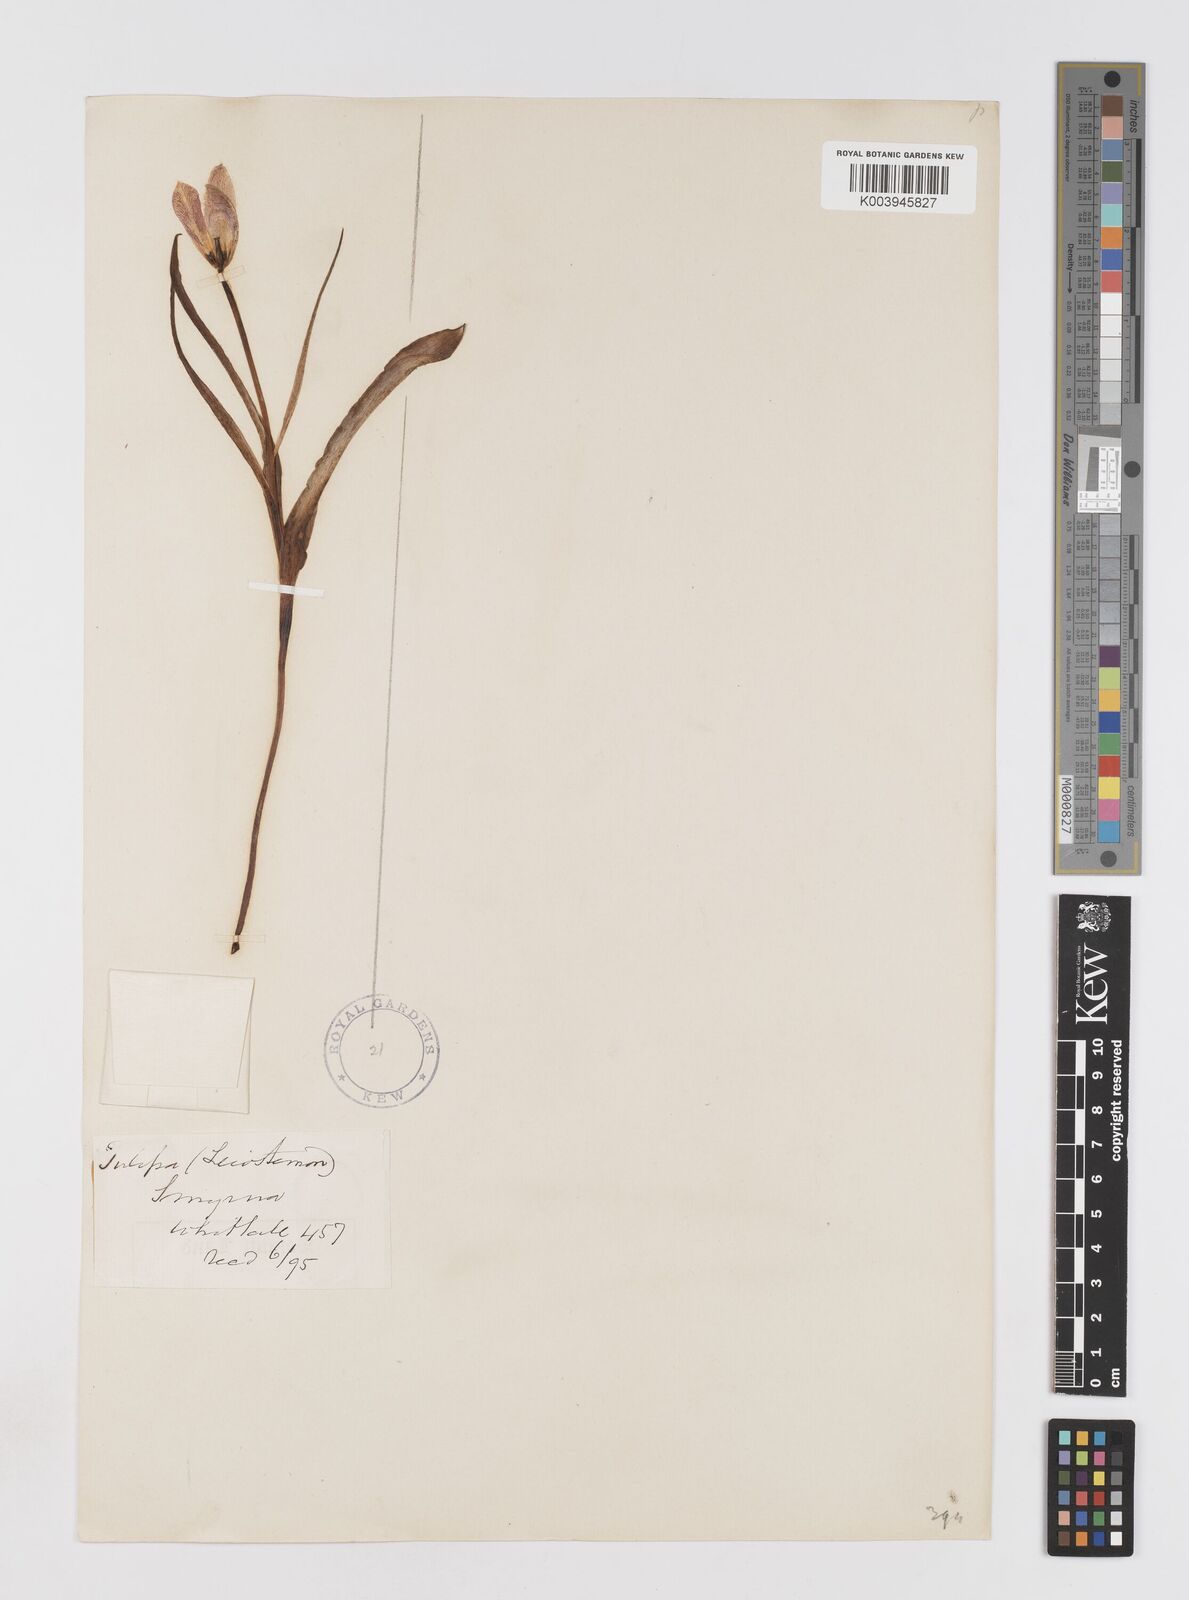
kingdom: Plantae
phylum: Tracheophyta
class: Liliopsida
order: Liliales
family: Liliaceae
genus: Tulipa
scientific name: Tulipa agenensis
